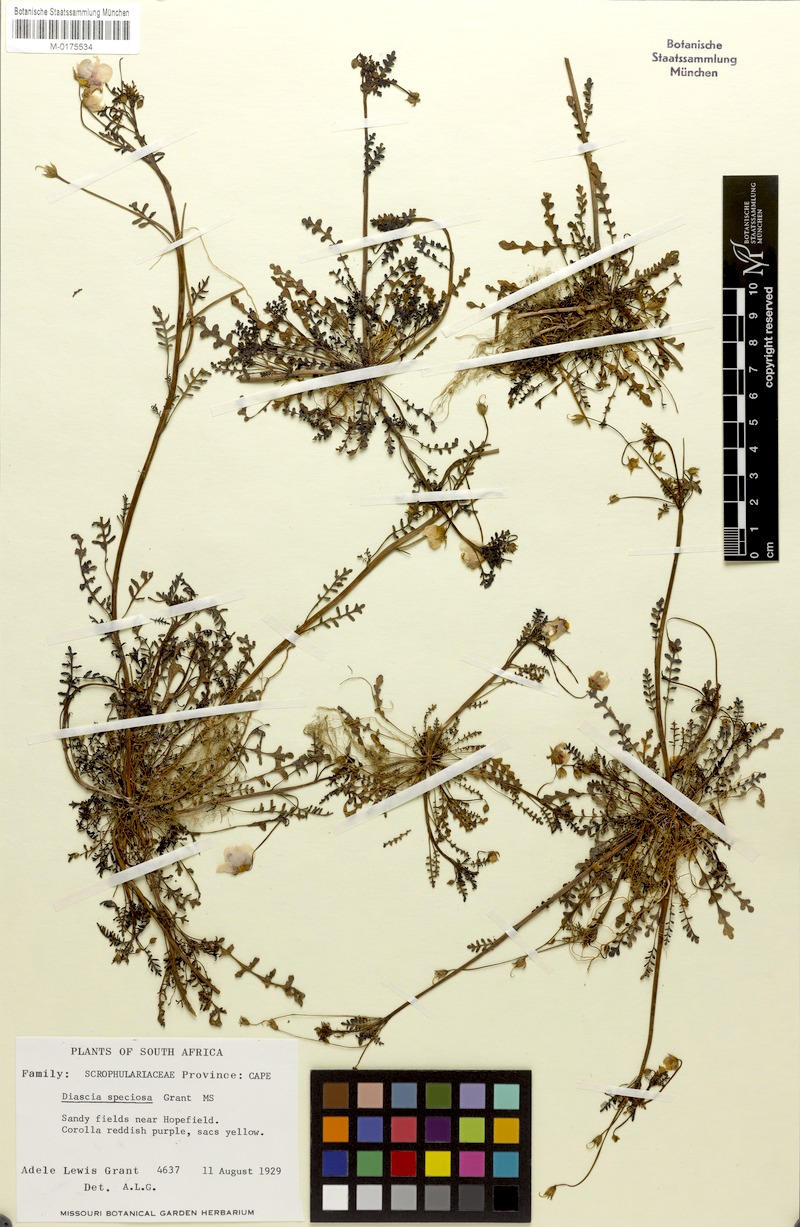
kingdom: Plantae
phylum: Tracheophyta
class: Magnoliopsida
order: Lamiales
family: Scrophulariaceae
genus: Diascia
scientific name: Diascia speciosa
